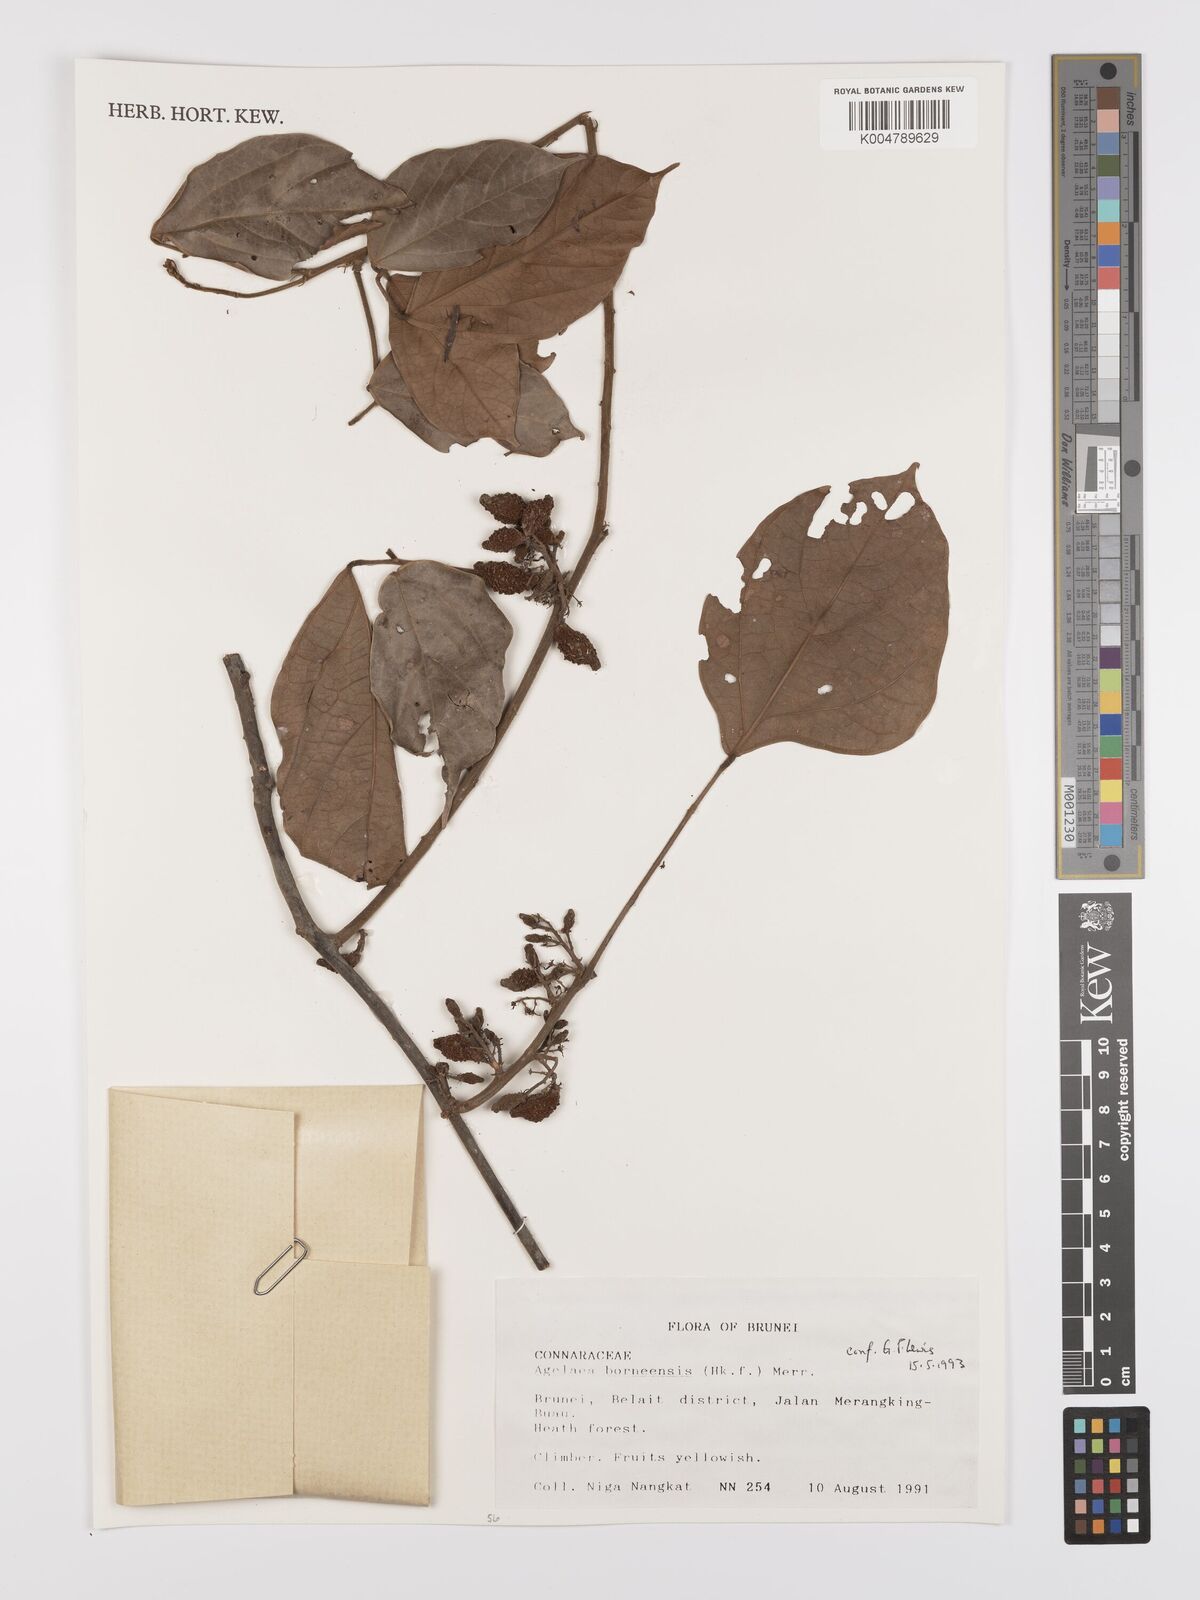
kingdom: Plantae
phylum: Tracheophyta
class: Magnoliopsida
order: Oxalidales
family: Connaraceae
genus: Agelaea
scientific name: Agelaea borneensis
